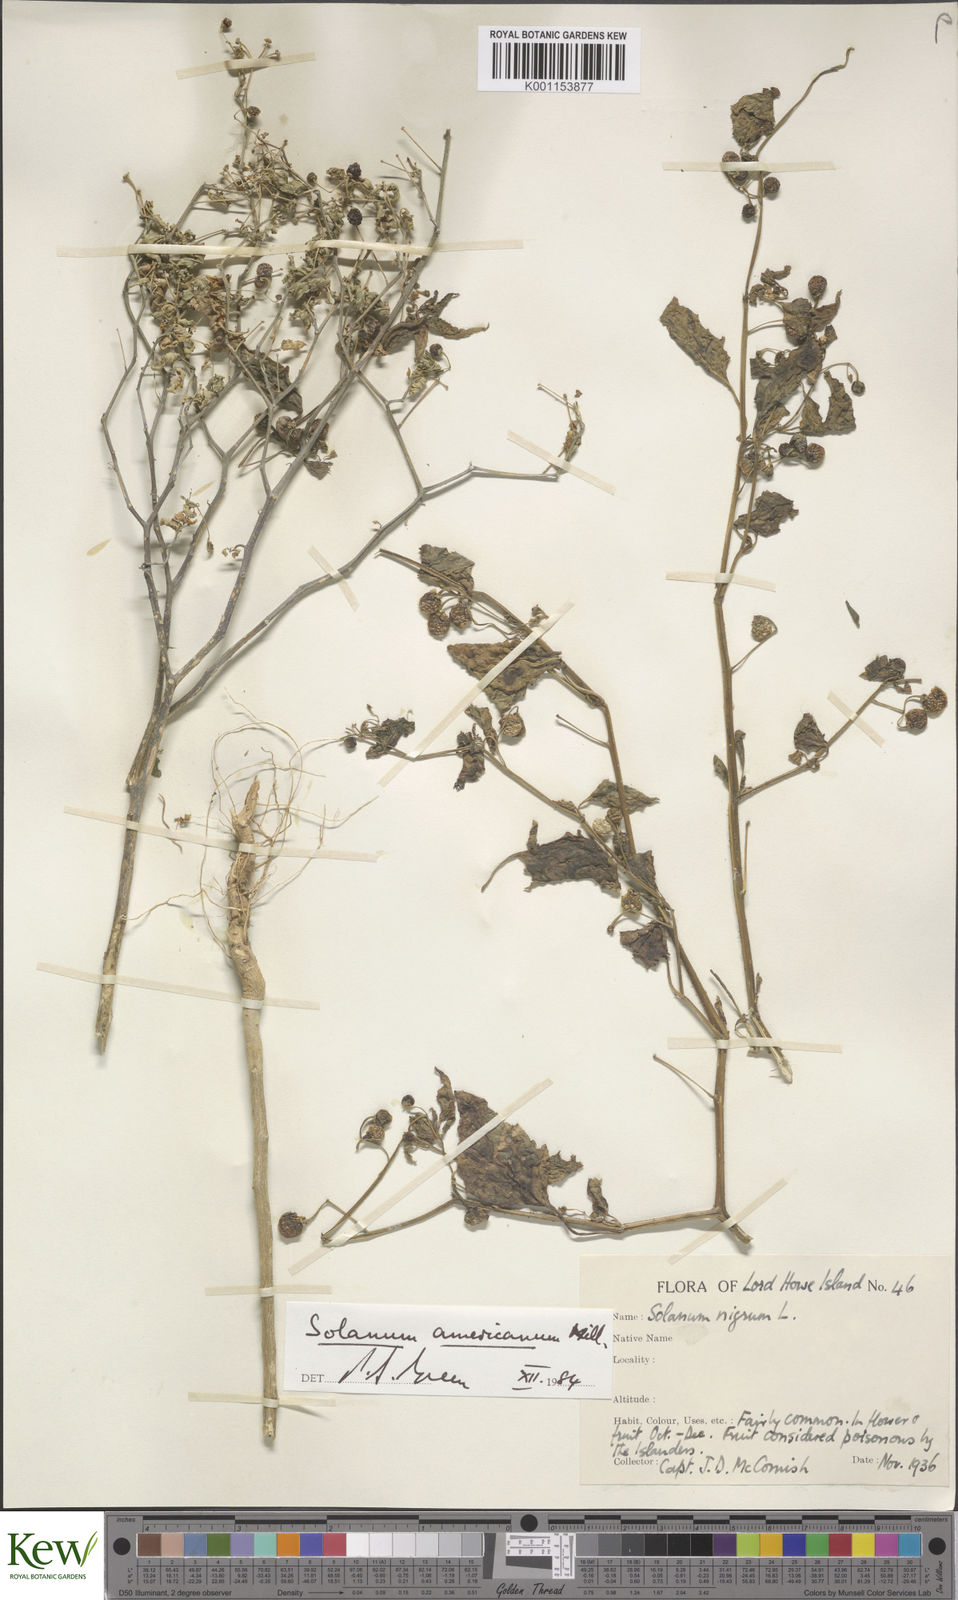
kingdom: Plantae
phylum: Tracheophyta
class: Magnoliopsida
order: Solanales
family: Solanaceae
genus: Solanum
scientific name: Solanum americanum
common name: American black nightshade
